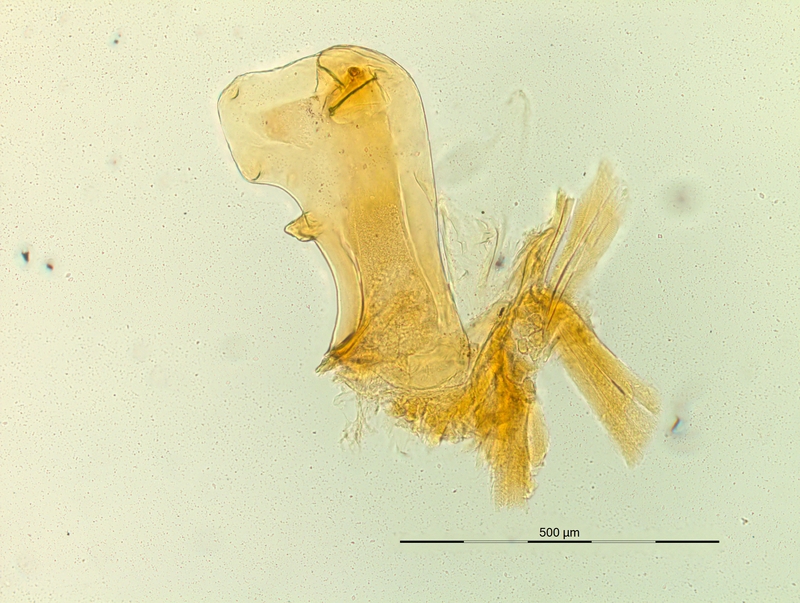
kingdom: Animalia
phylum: Arthropoda
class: Diplopoda
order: Chordeumatida
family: Craspedosomatidae
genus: Pyrgocyphosoma
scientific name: Pyrgocyphosoma brunatense
